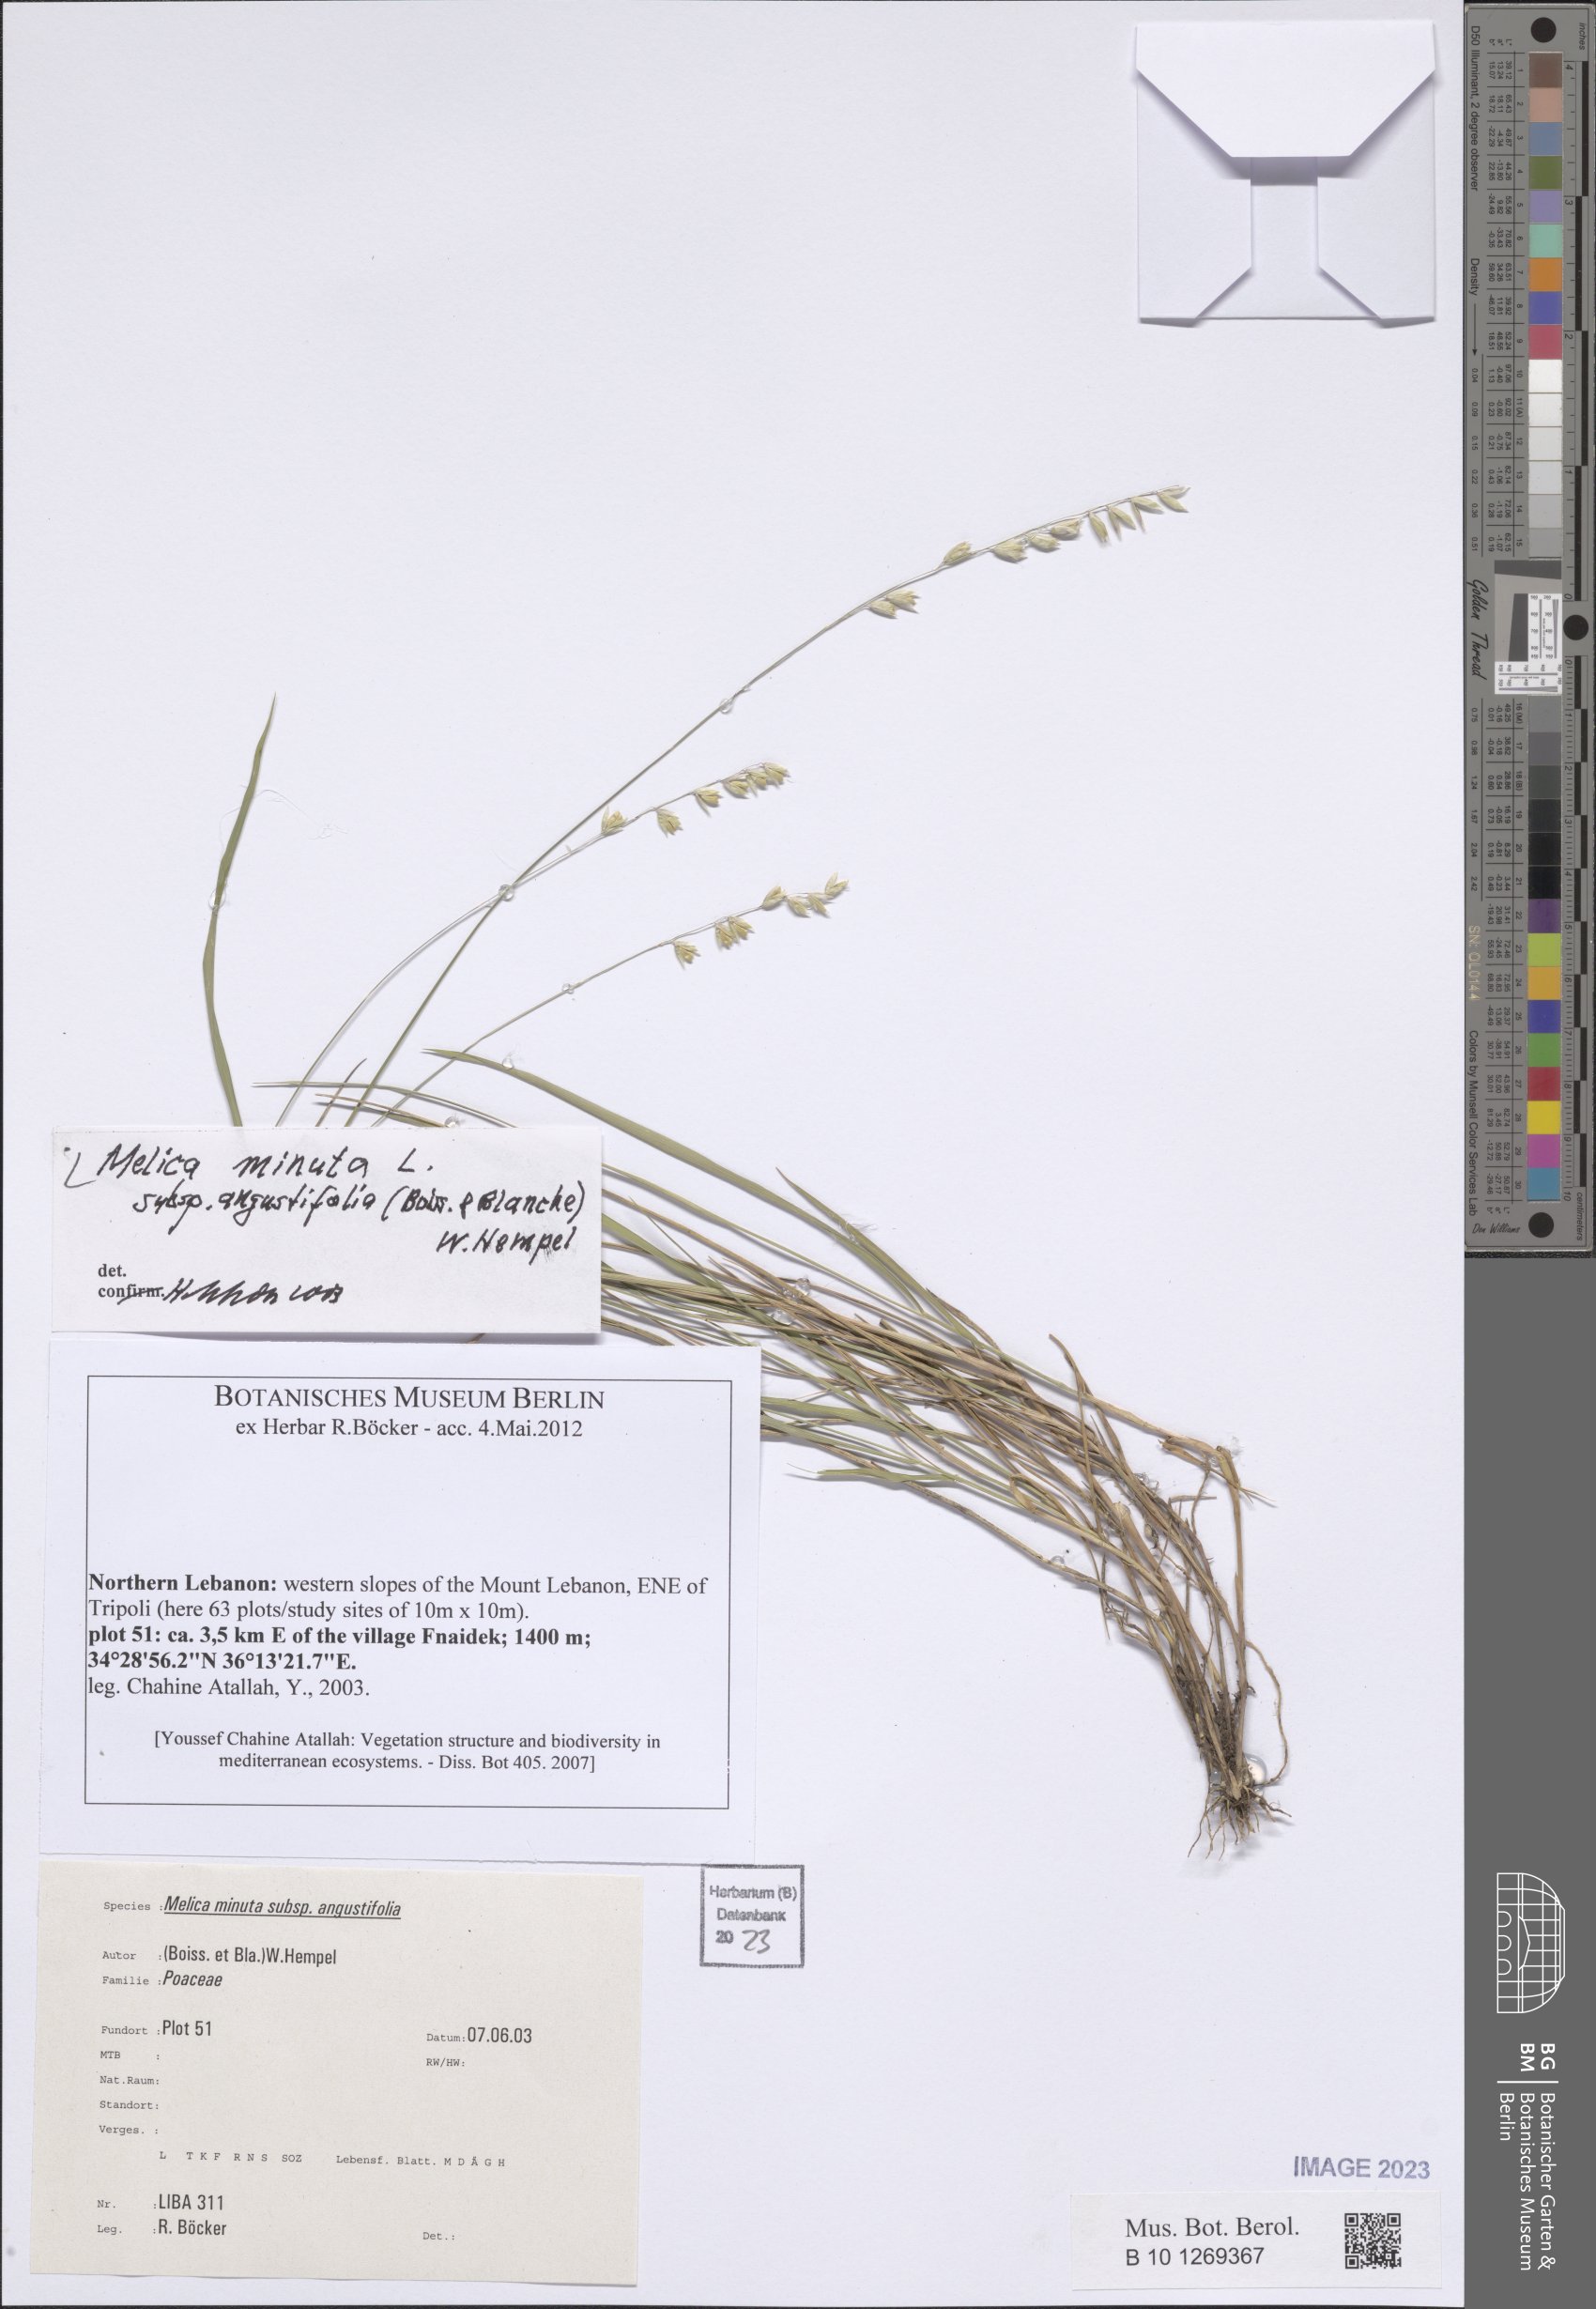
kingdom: Plantae
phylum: Tracheophyta
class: Liliopsida
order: Poales
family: Poaceae
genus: Melica
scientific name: Melica eligulata
